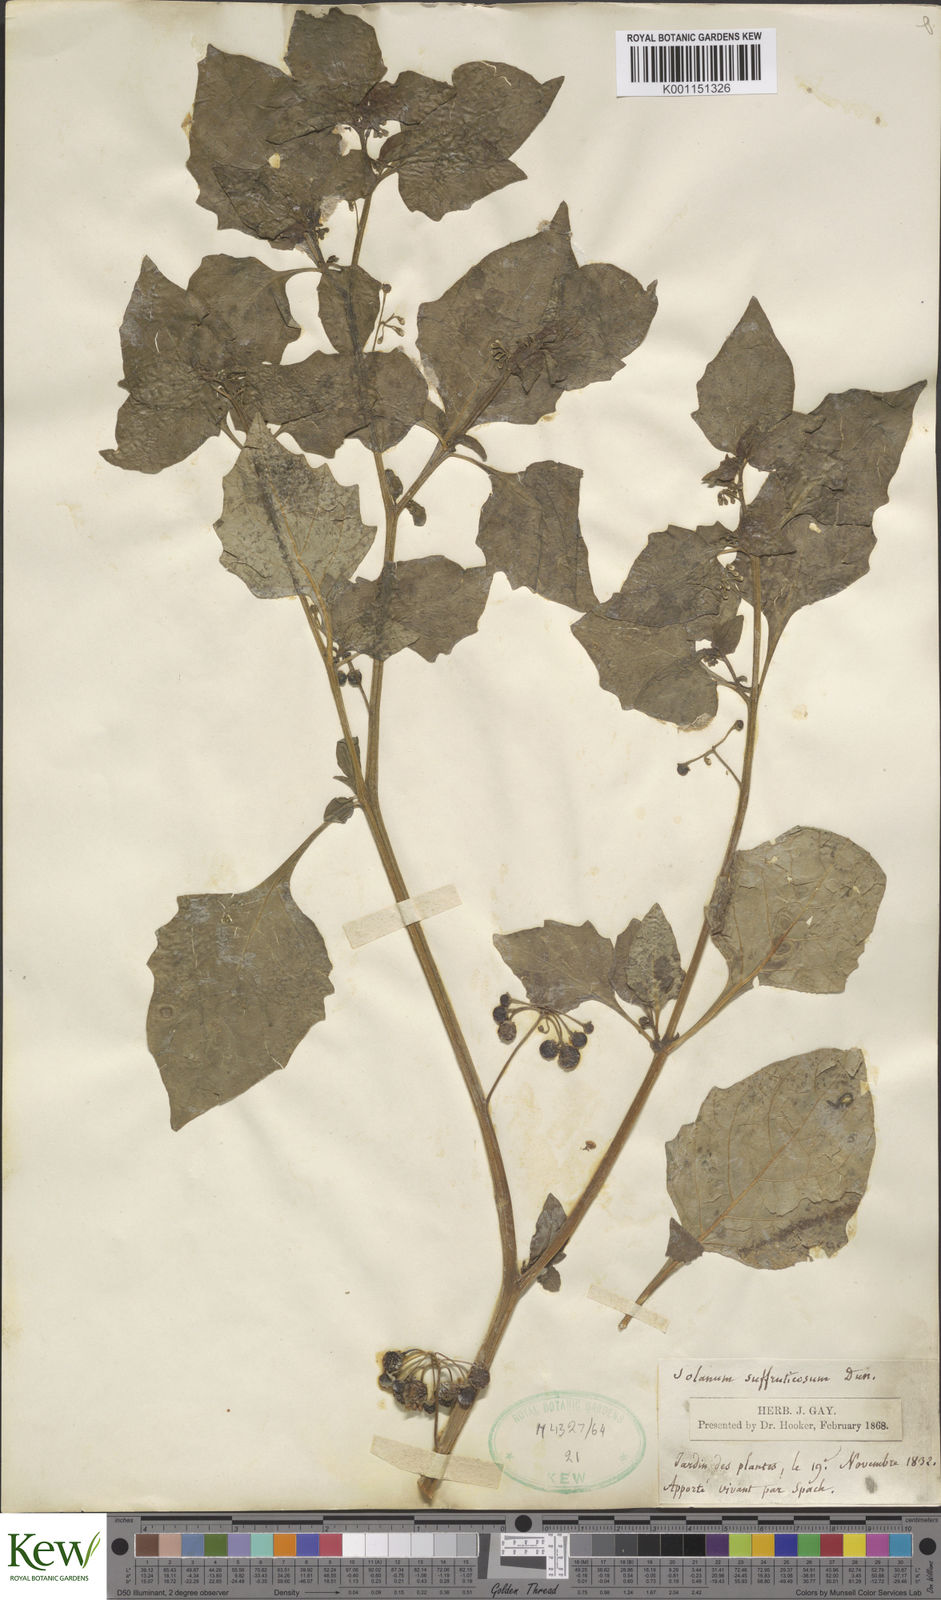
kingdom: Plantae
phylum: Tracheophyta
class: Magnoliopsida
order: Solanales
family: Solanaceae
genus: Solanum
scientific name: Solanum nigrum
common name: Black nightshade
